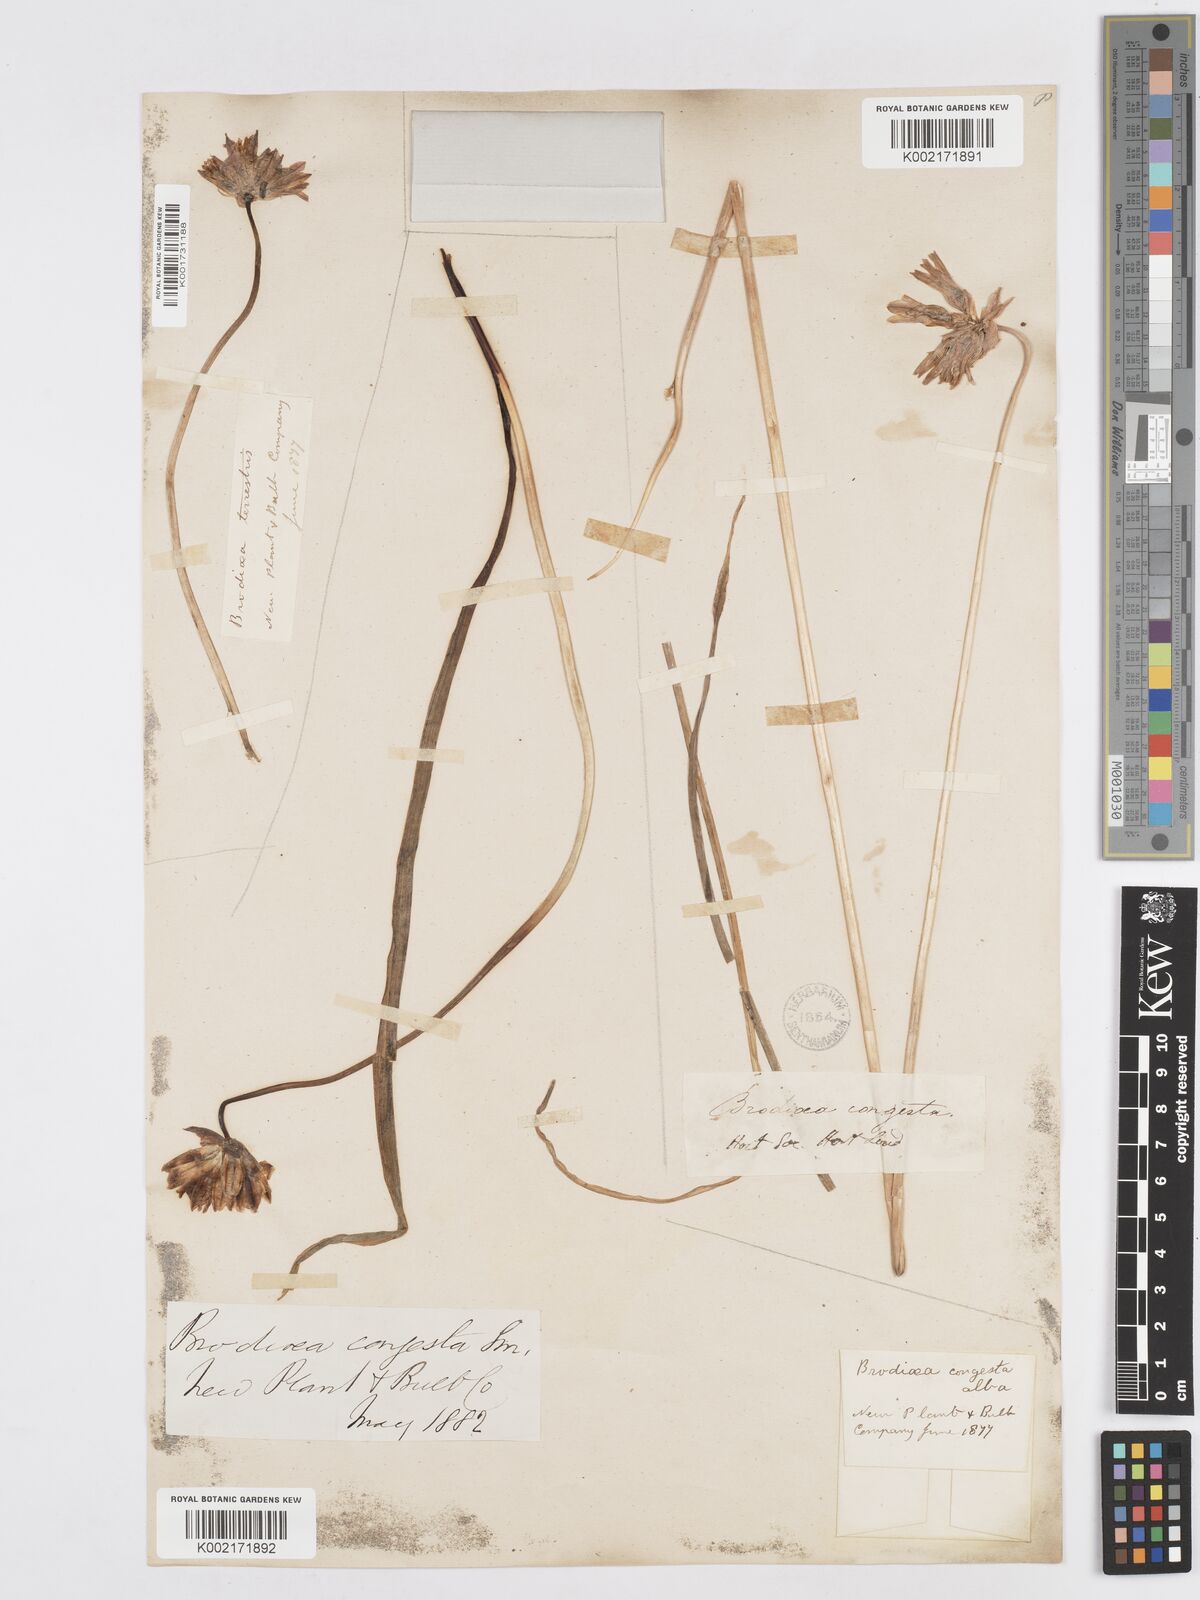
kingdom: Plantae
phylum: Tracheophyta
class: Liliopsida
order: Asparagales
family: Asparagaceae
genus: Dichelostemma
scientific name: Dichelostemma congestum
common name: Fork-tooth ookow
